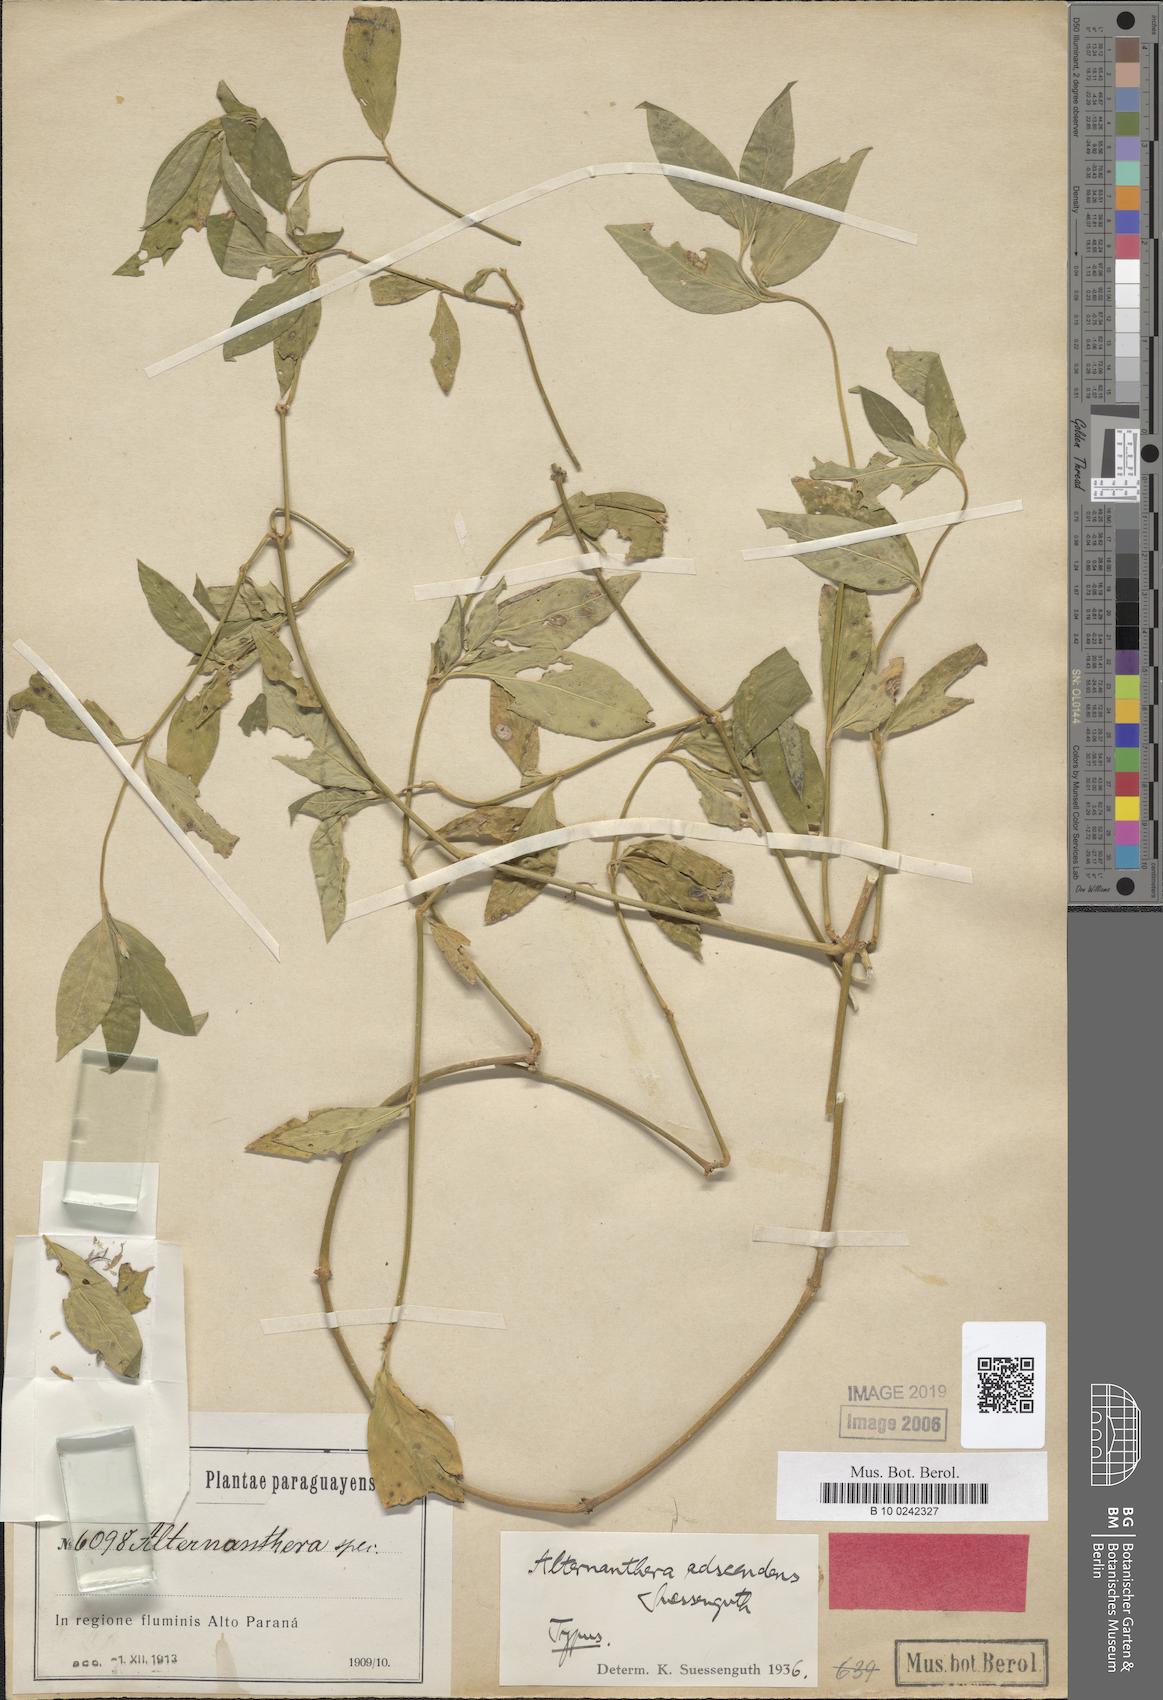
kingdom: Plantae
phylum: Tracheophyta
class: Magnoliopsida
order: Caryophyllales
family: Amaranthaceae
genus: Alternanthera
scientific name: Alternanthera adscendens
